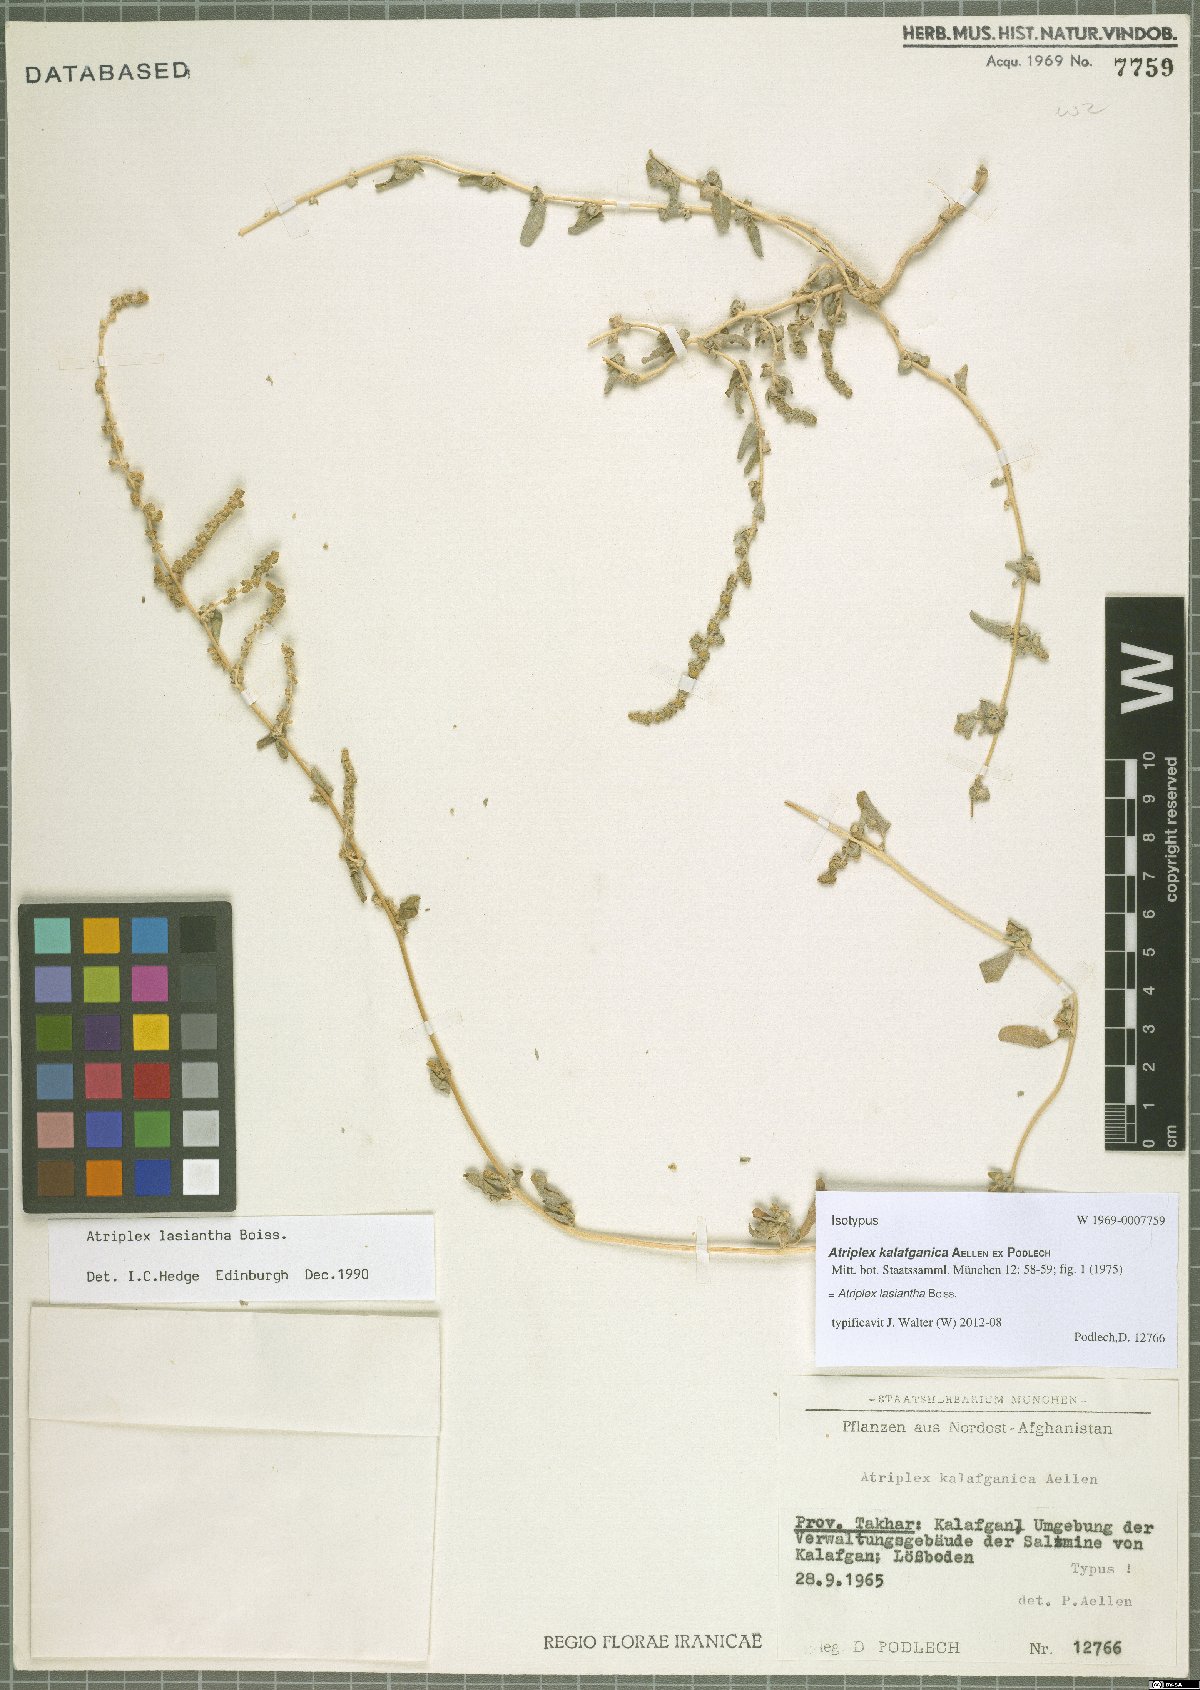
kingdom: Plantae
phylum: Tracheophyta
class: Magnoliopsida
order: Caryophyllales
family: Amaranthaceae
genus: Atriplex
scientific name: Atriplex lasiantha
